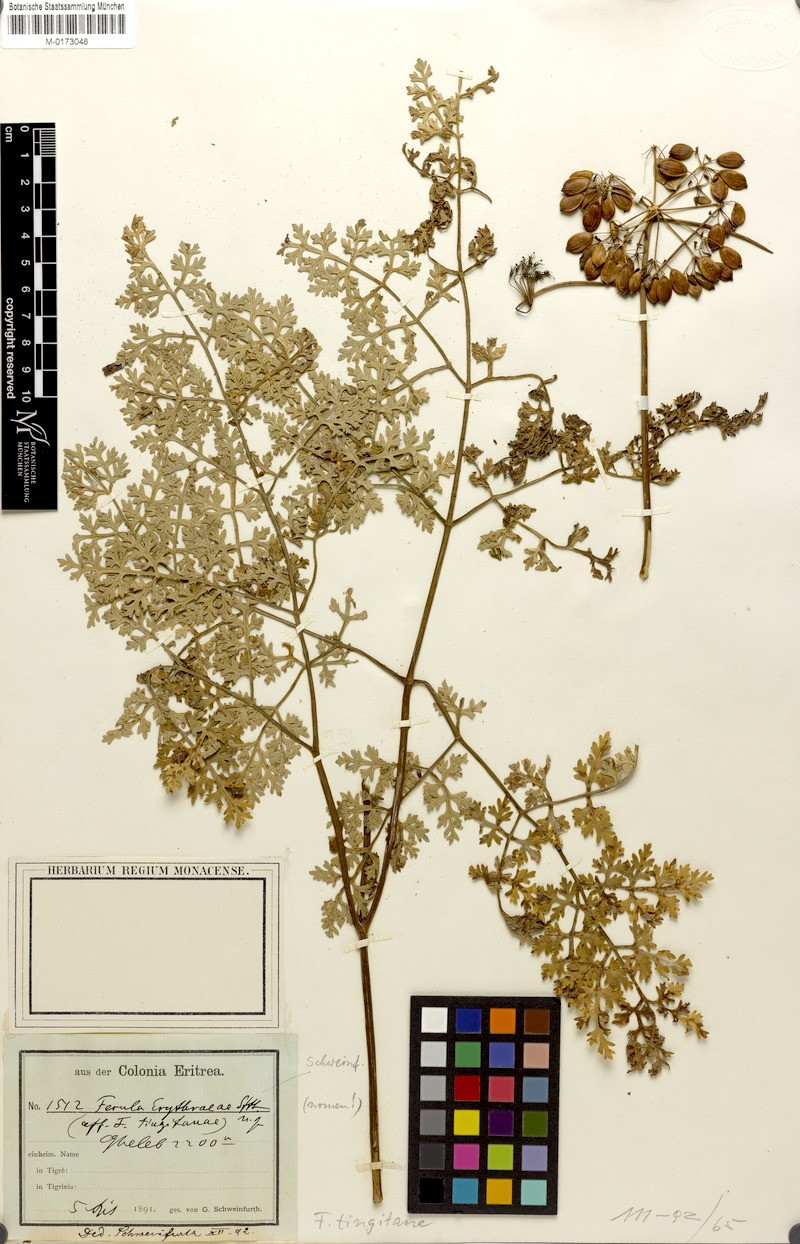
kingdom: Plantae
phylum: Tracheophyta
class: Magnoliopsida
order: Apiales
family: Apiaceae
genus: Ferula
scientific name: Ferula tingitana
